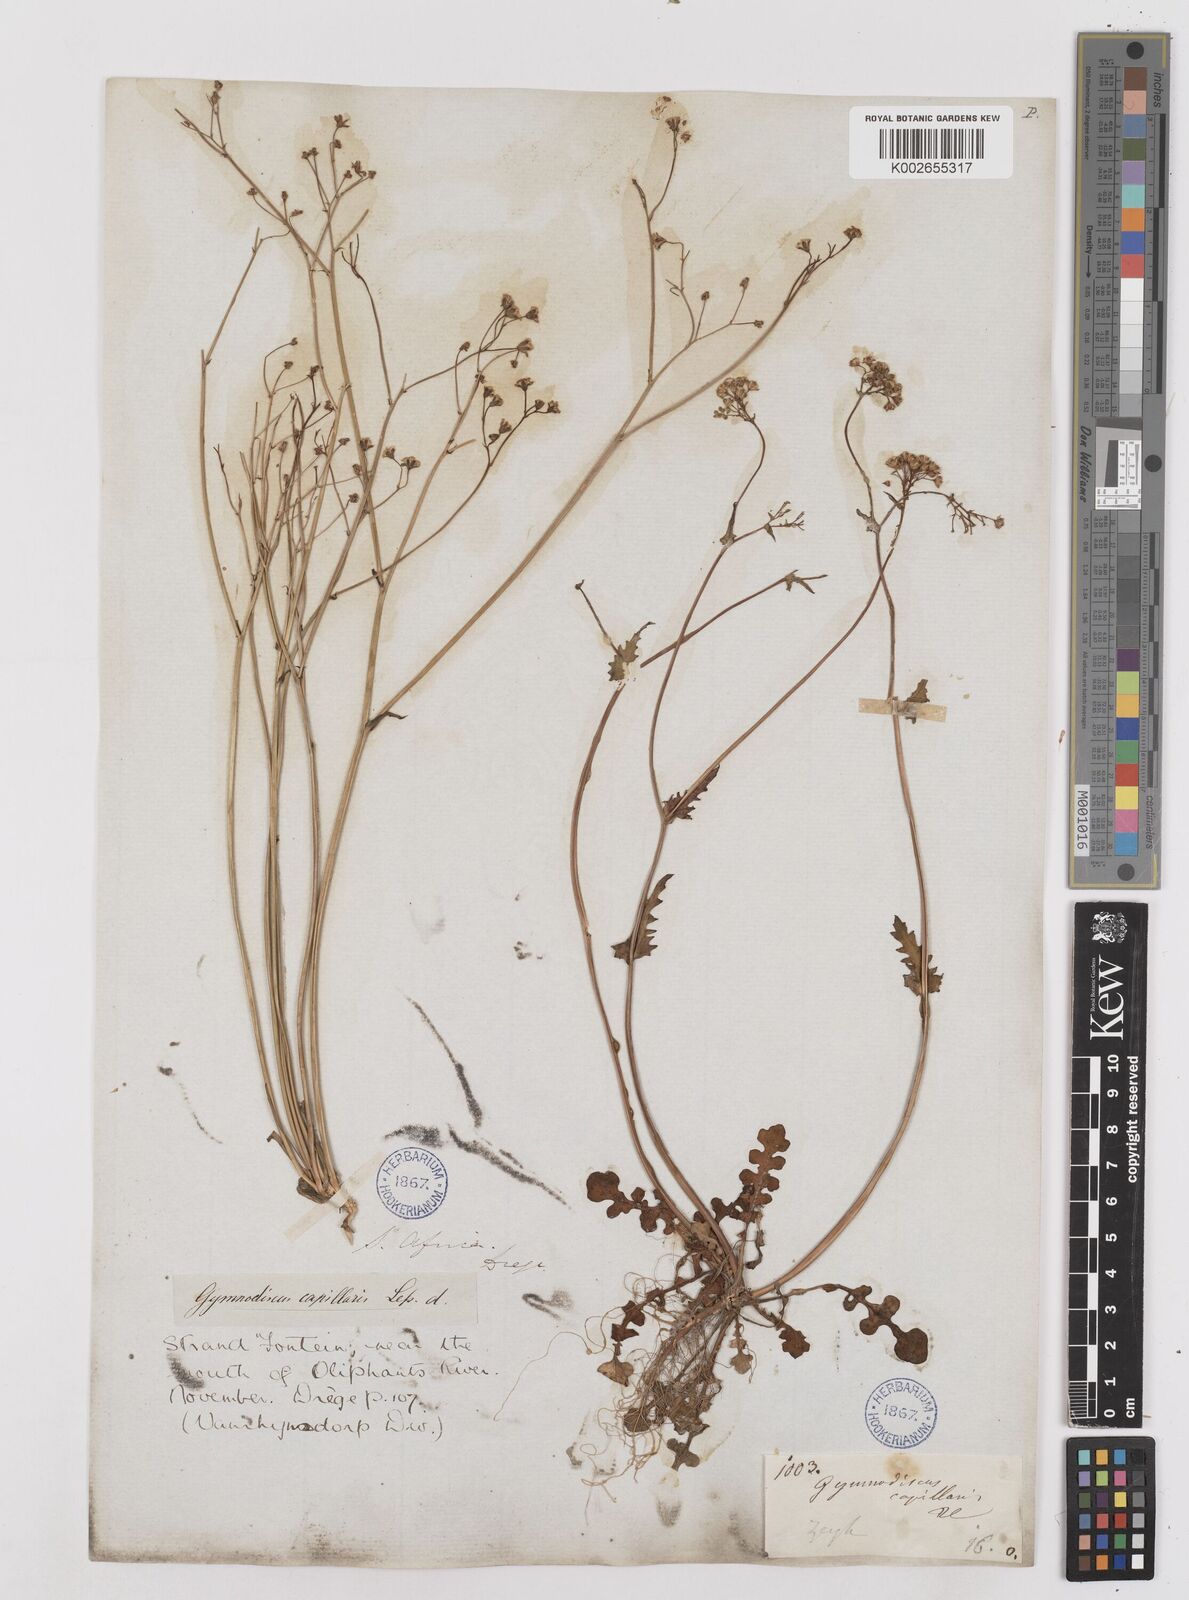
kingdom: Plantae
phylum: Tracheophyta
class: Magnoliopsida
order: Asterales
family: Asteraceae
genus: Gymnodiscus
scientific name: Gymnodiscus capillaris
